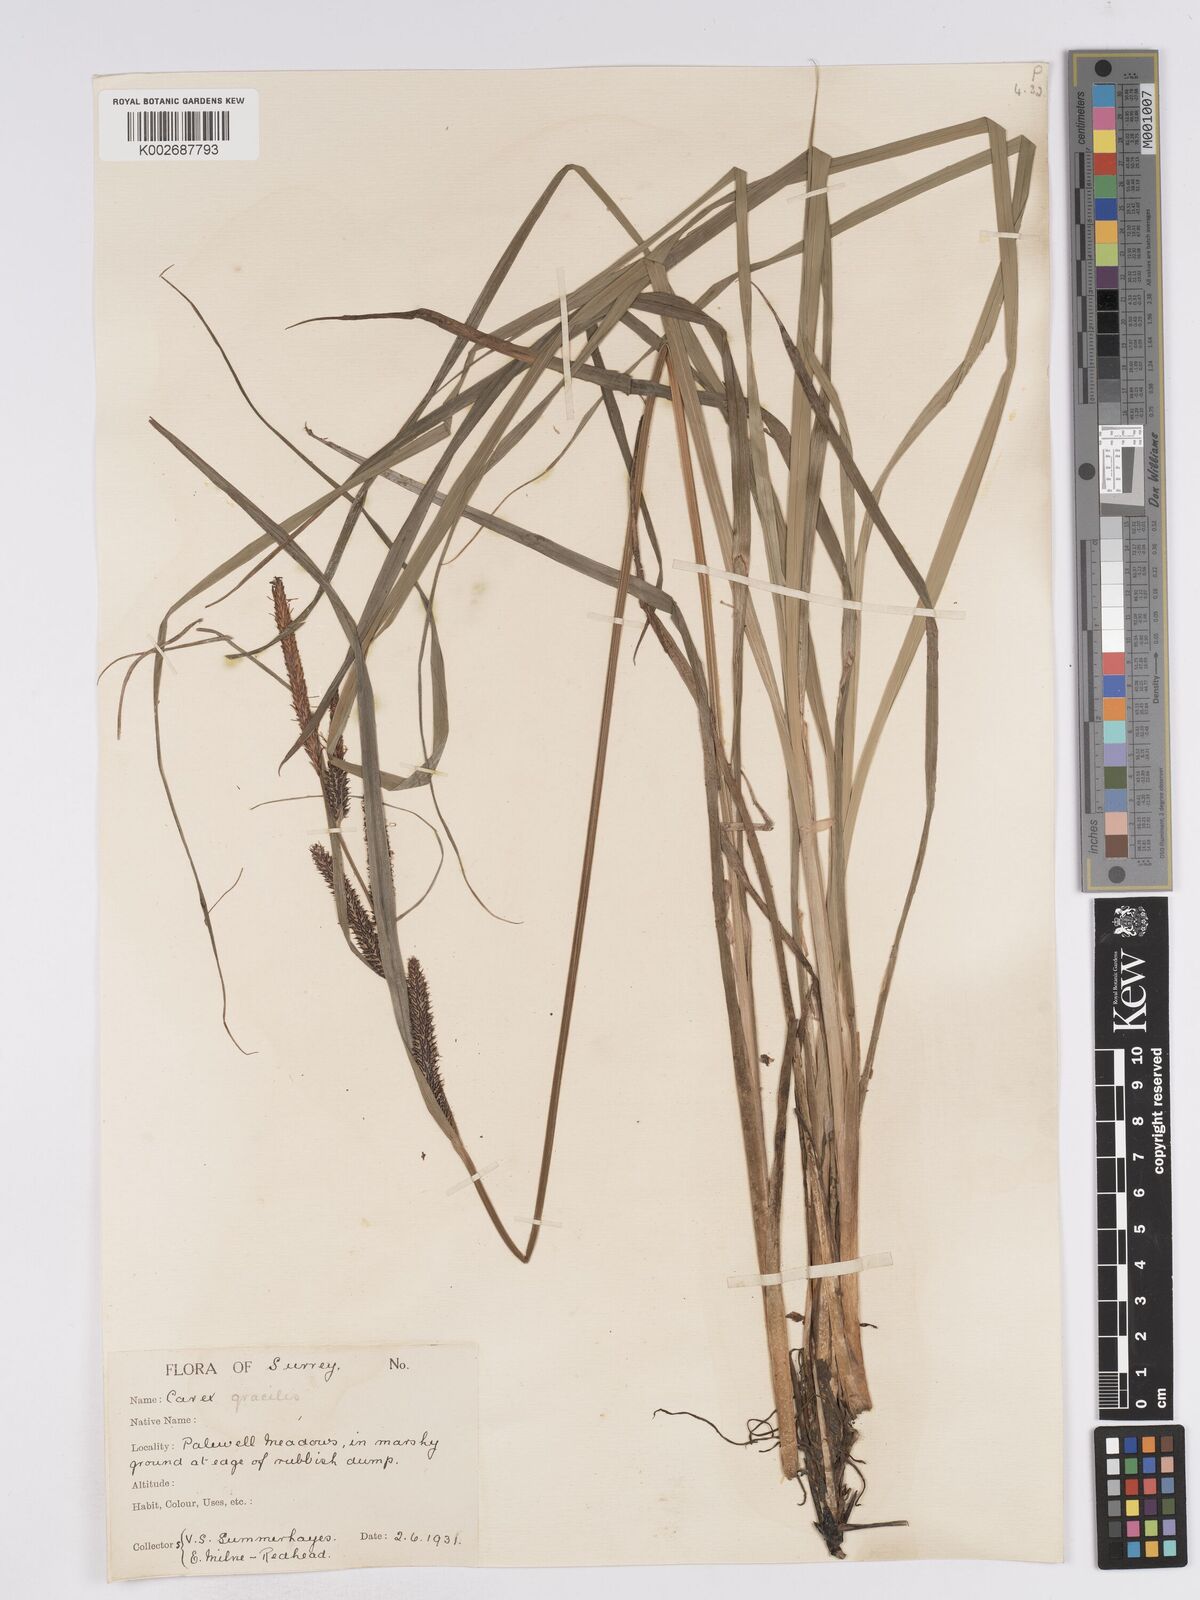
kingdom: Plantae
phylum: Tracheophyta
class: Liliopsida
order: Poales
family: Cyperaceae
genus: Carex
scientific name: Carex acuta
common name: Slender tufted-sedge
